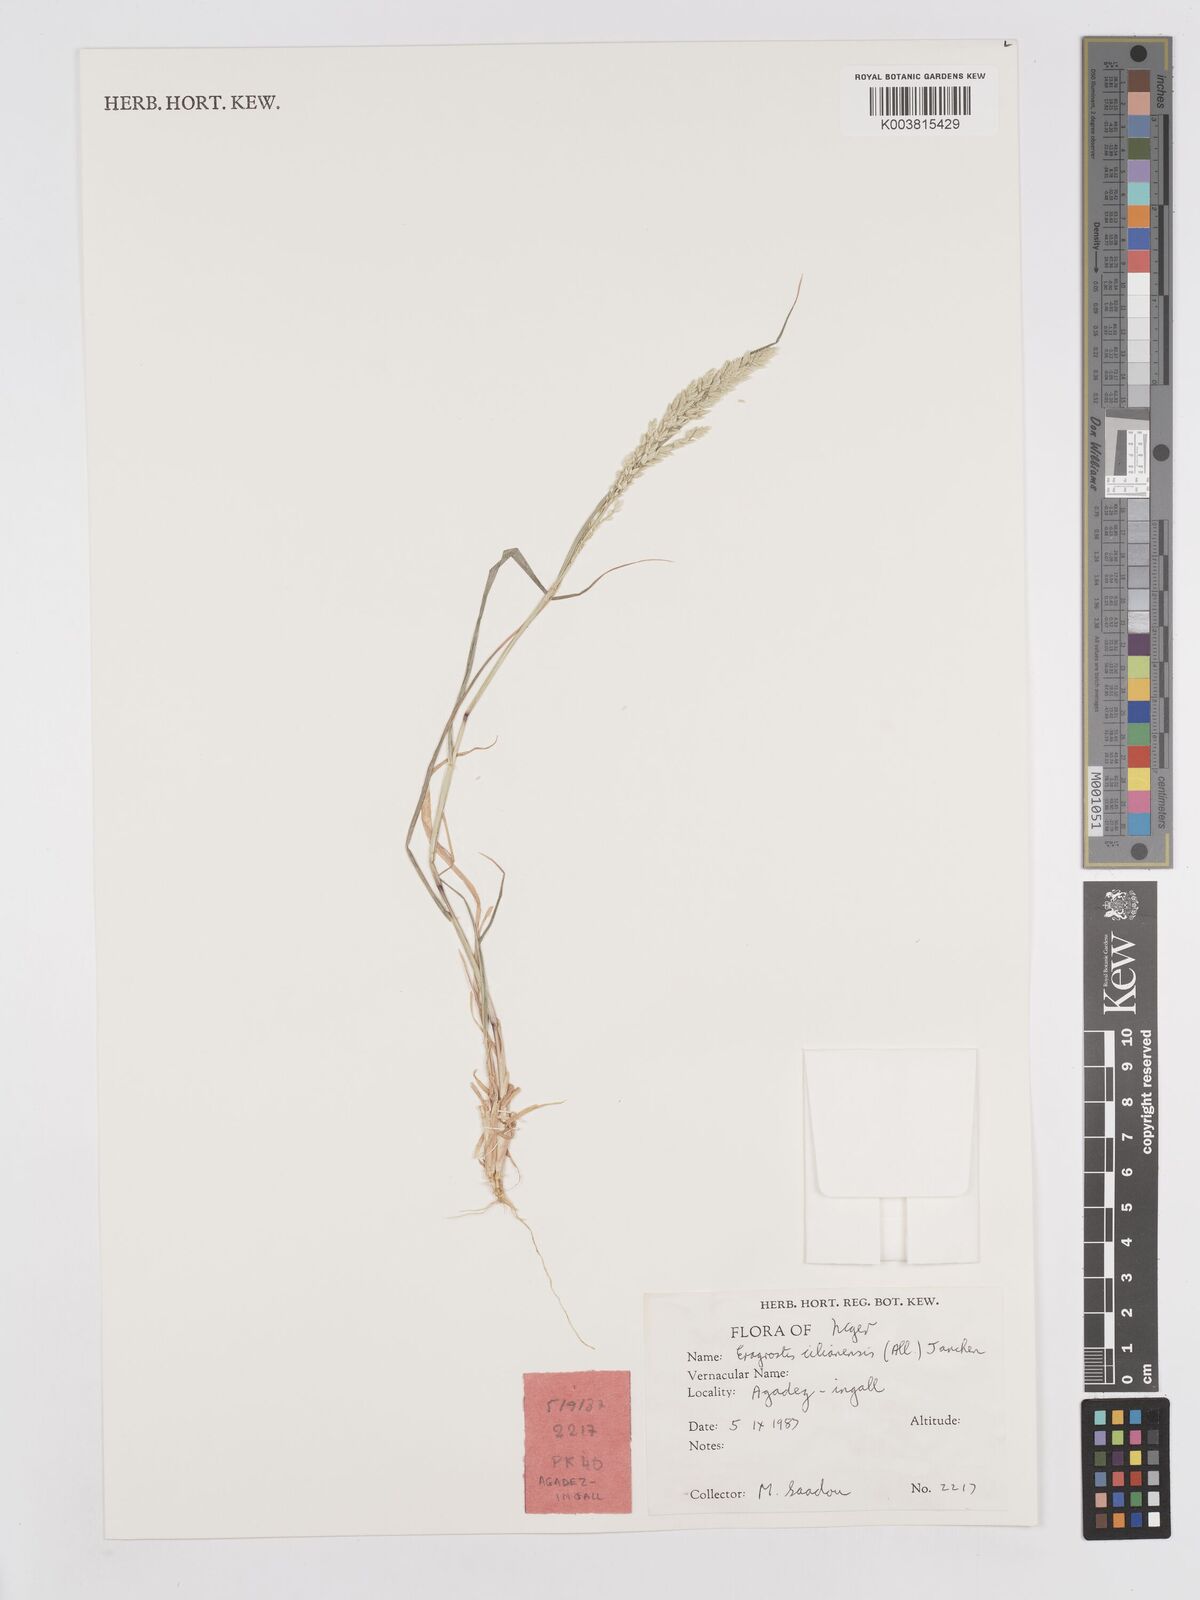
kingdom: Plantae
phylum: Tracheophyta
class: Liliopsida
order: Poales
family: Poaceae
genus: Eragrostis
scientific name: Eragrostis cilianensis
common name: Stinkgrass
